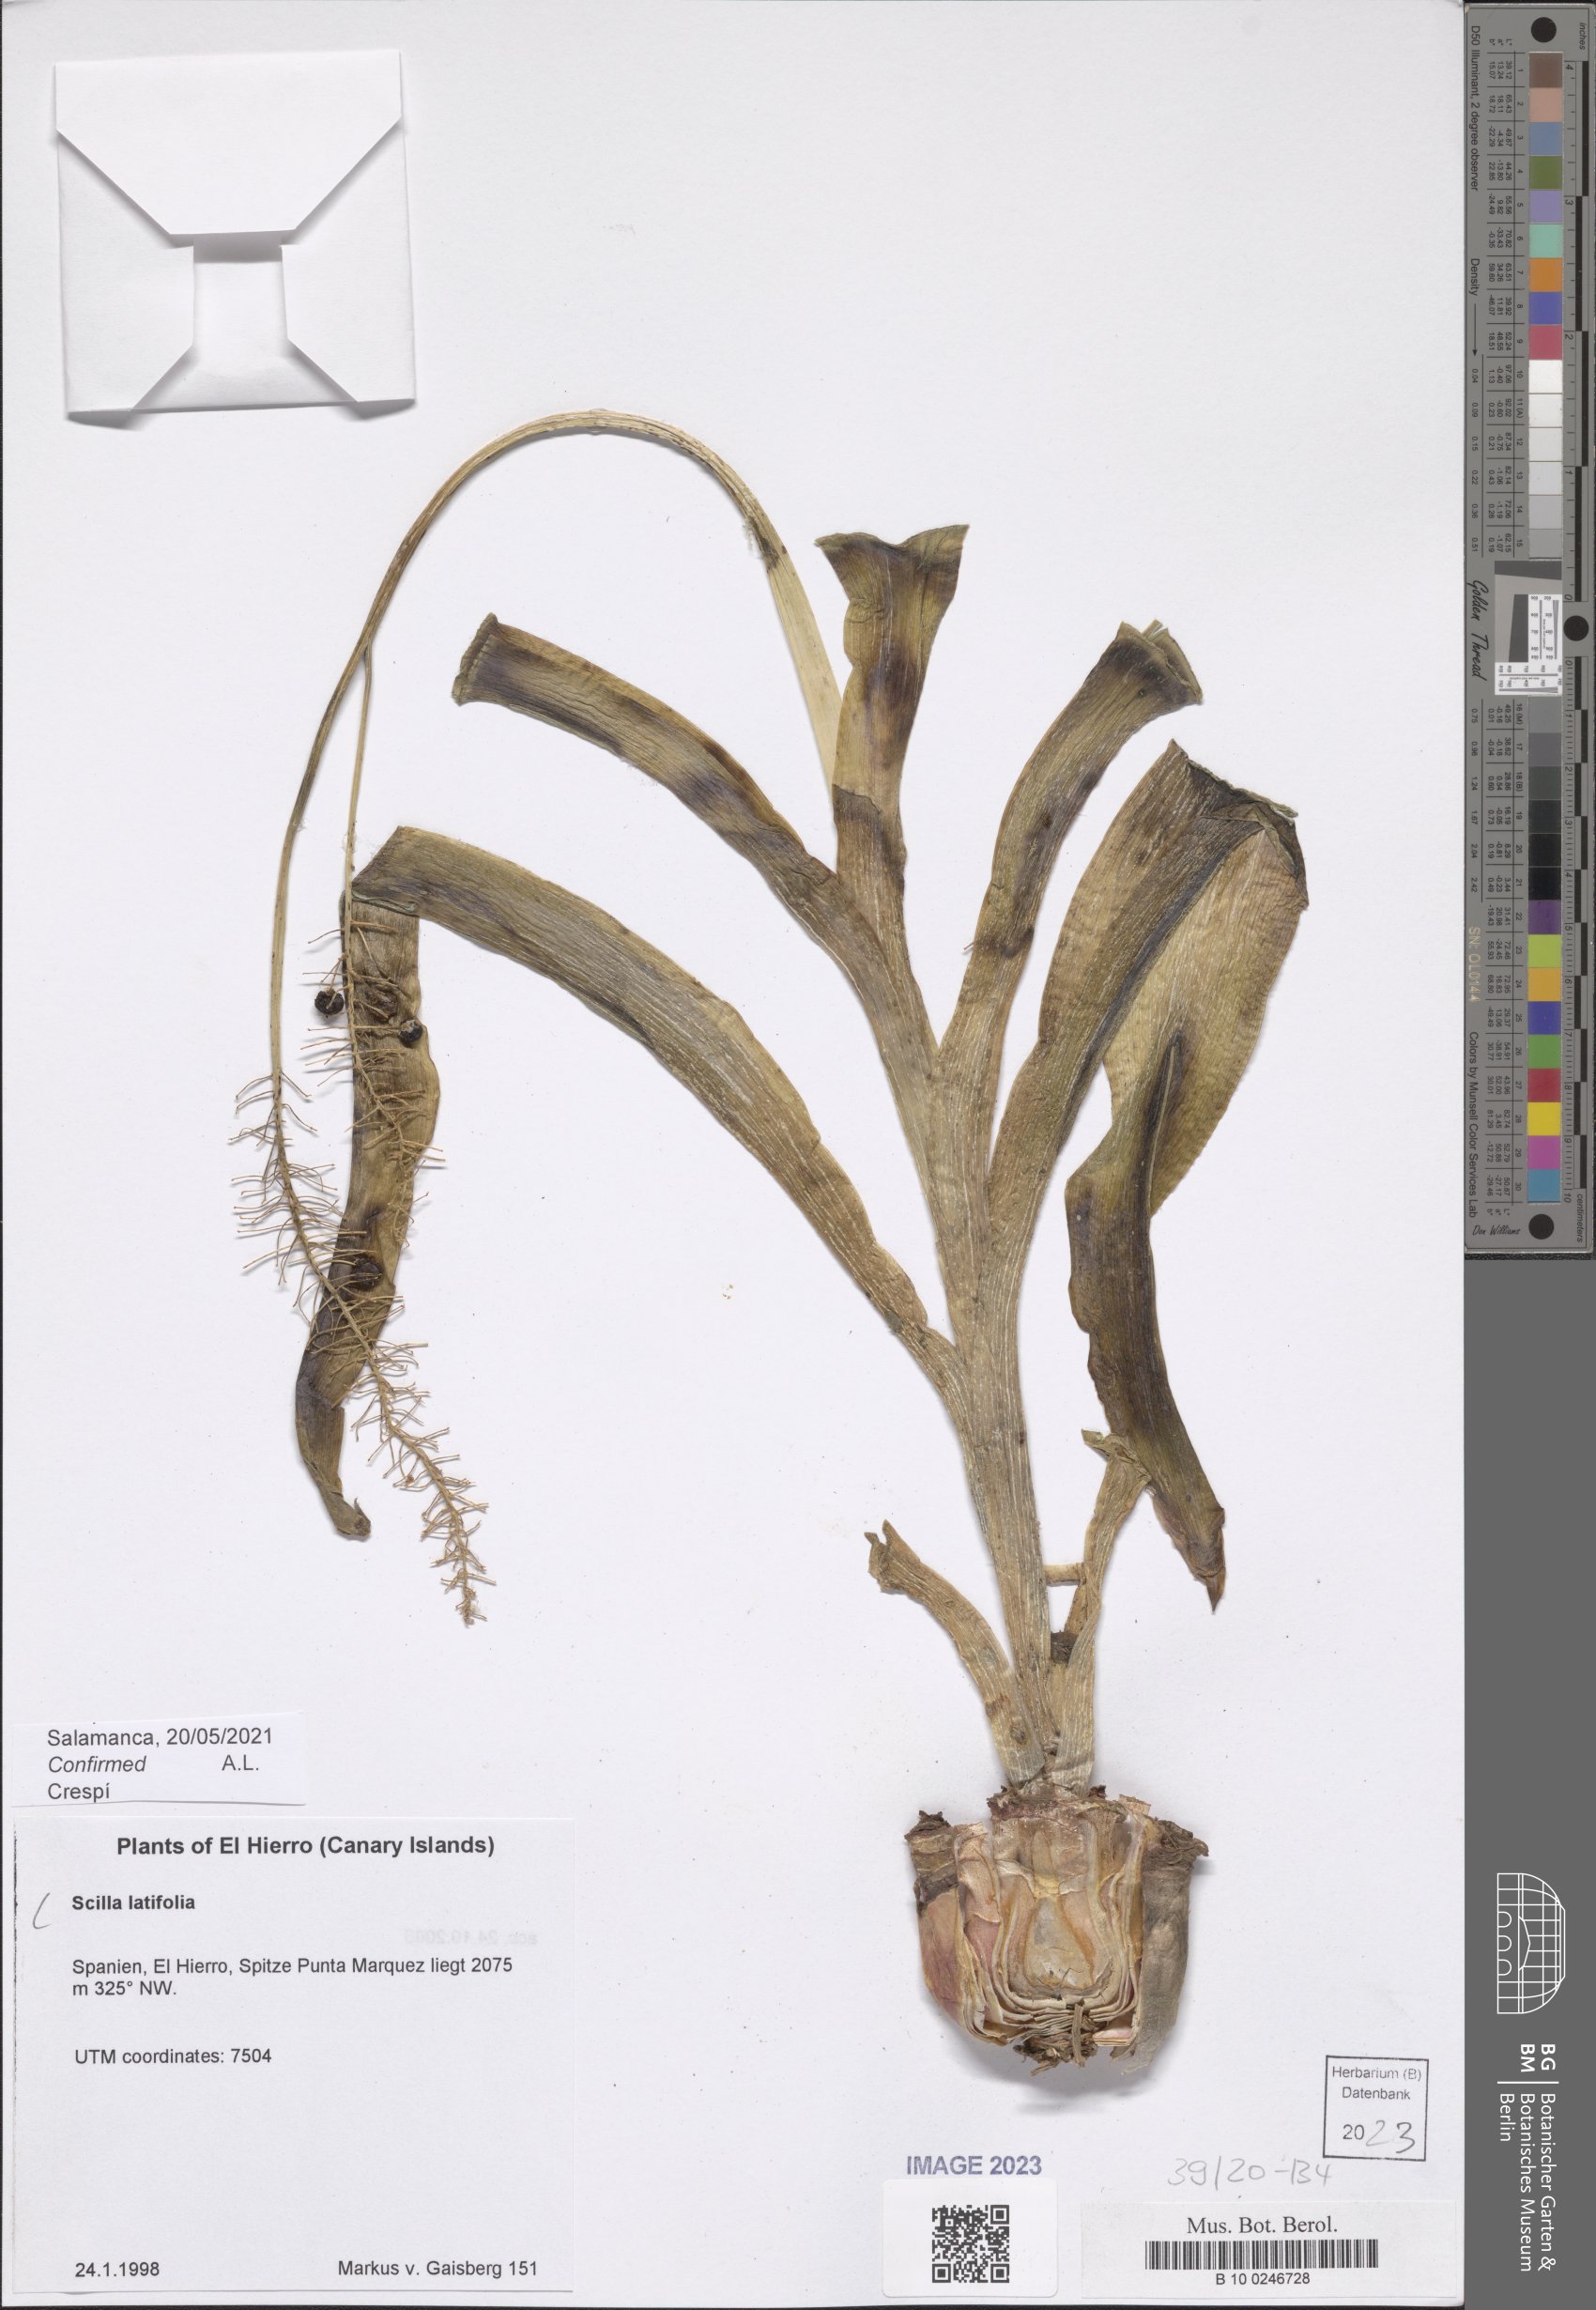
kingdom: Plantae
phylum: Tracheophyta
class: Liliopsida
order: Asparagales
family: Asparagaceae
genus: Scilla
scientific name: Scilla latifolia
